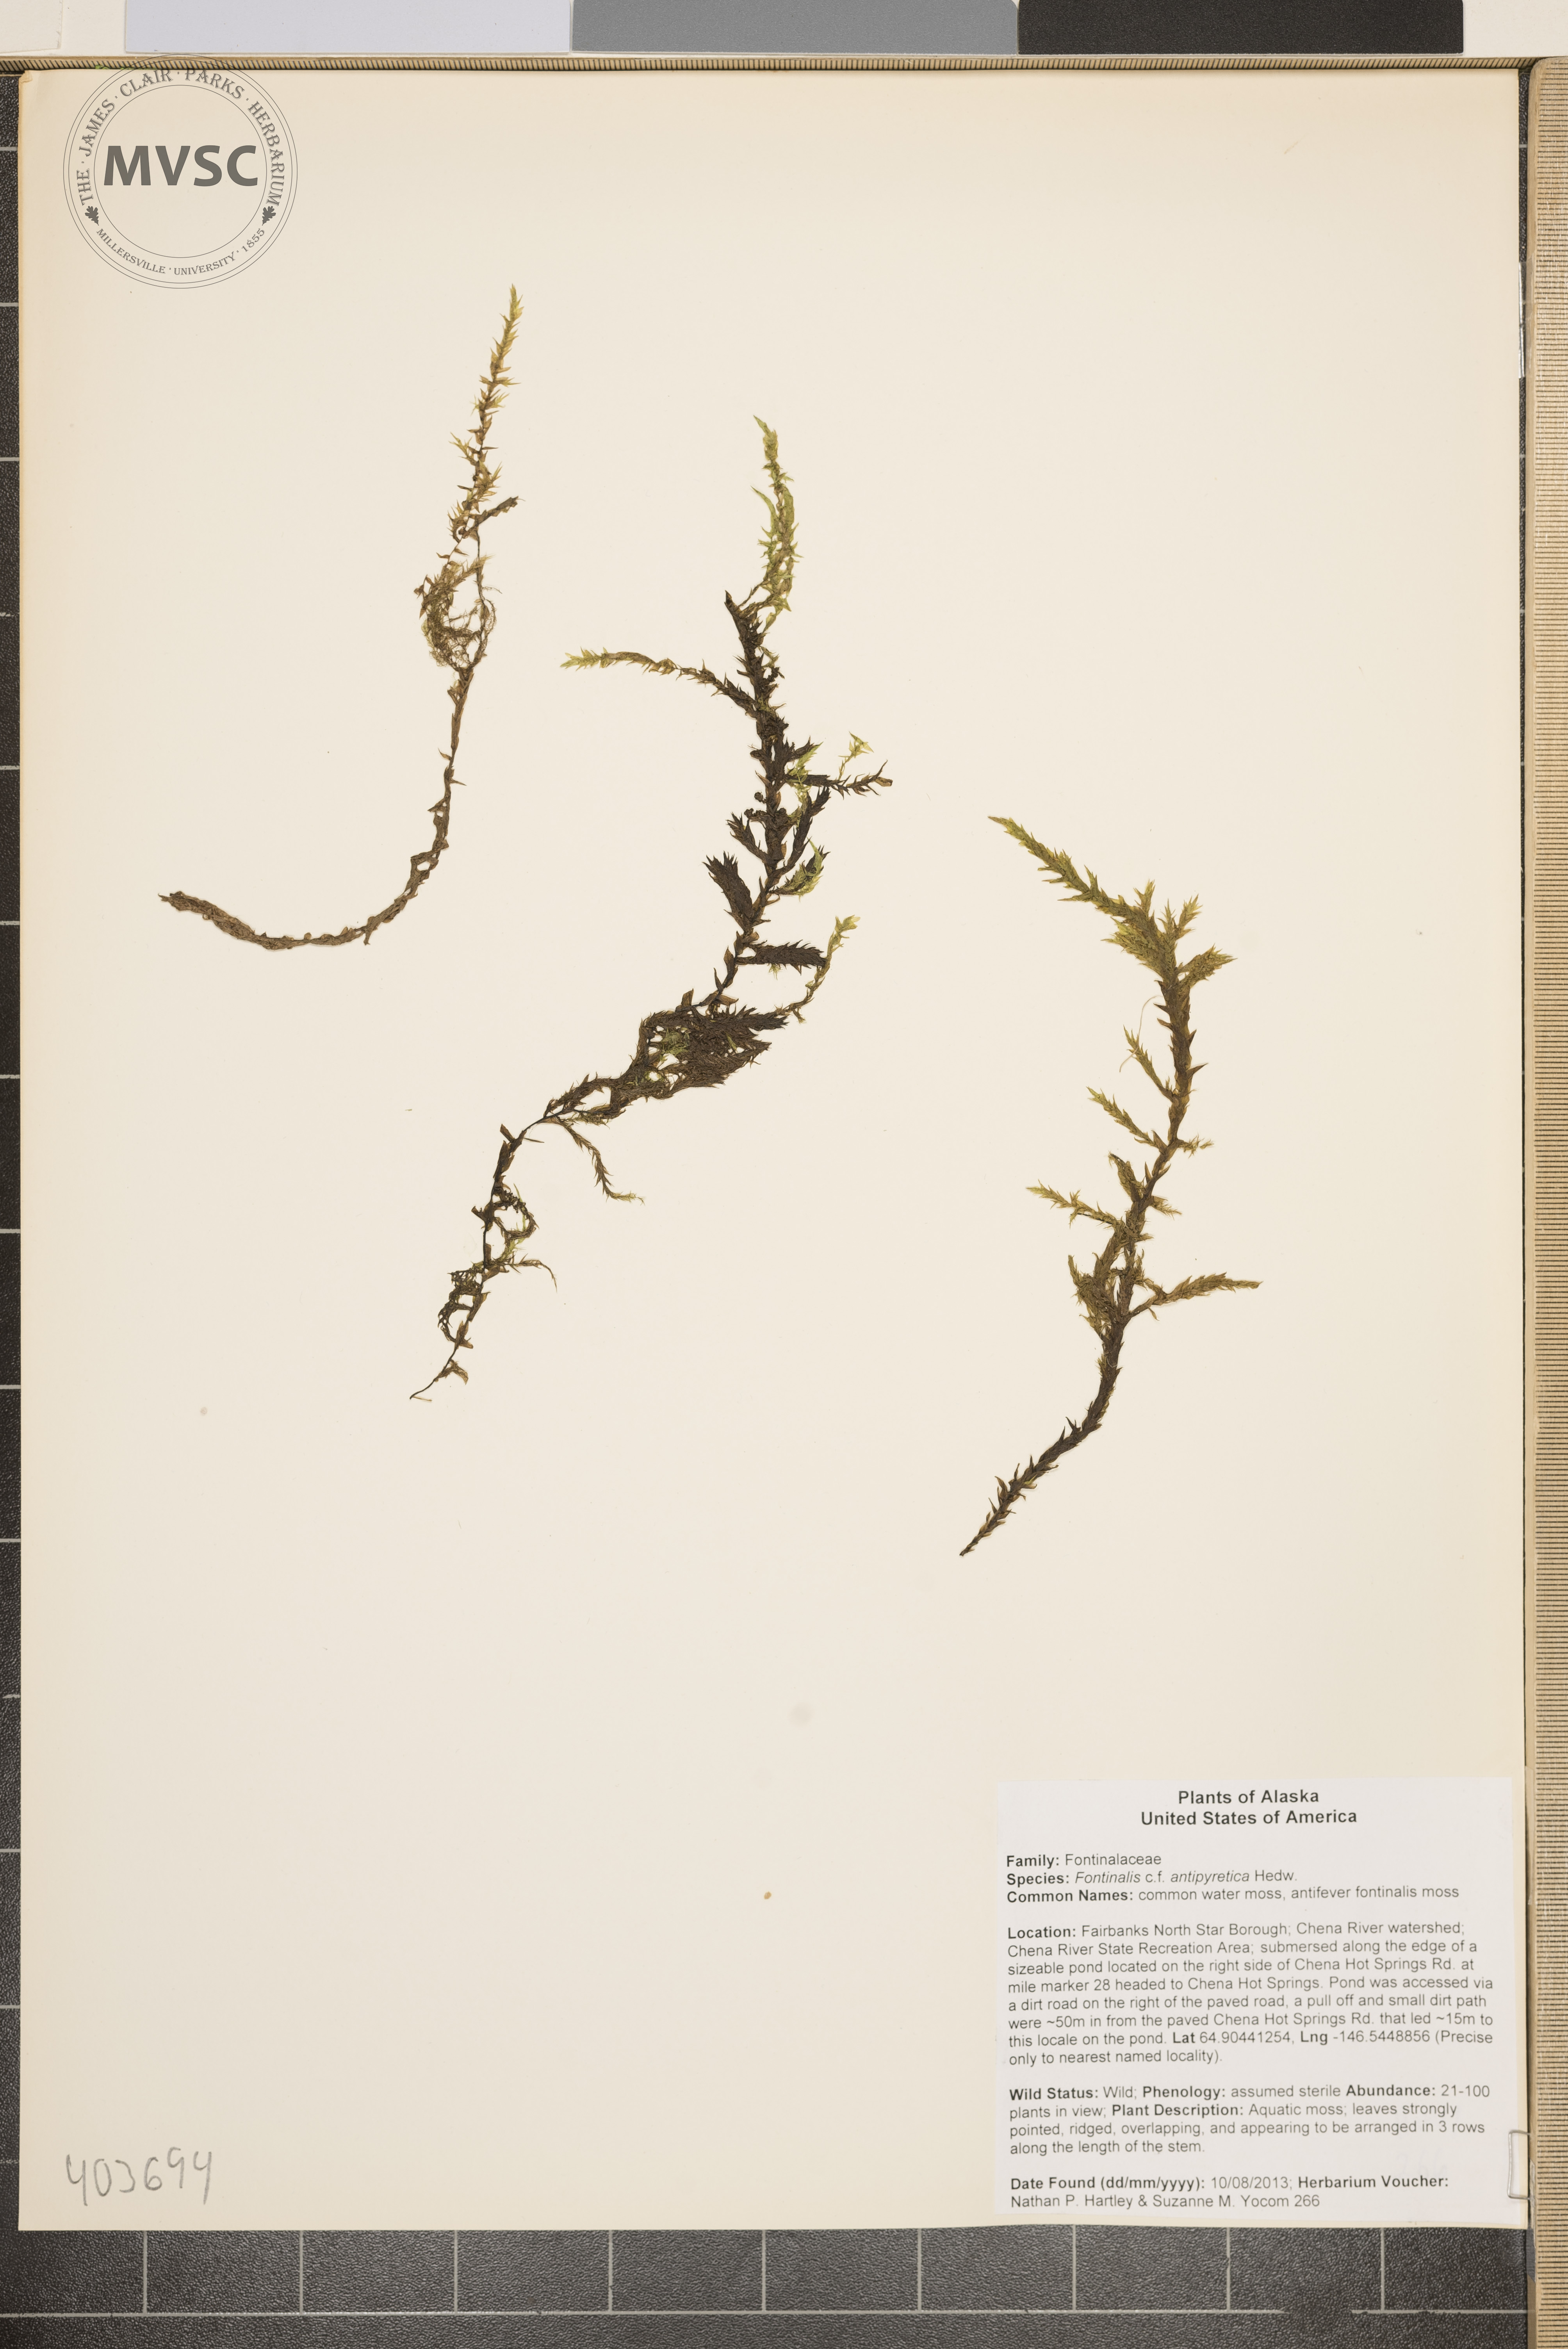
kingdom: Plantae
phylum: Bryophyta
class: Bryopsida
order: Hypnales
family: Fontinalaceae
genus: Fontinalis
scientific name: Fontinalis antipyretica
